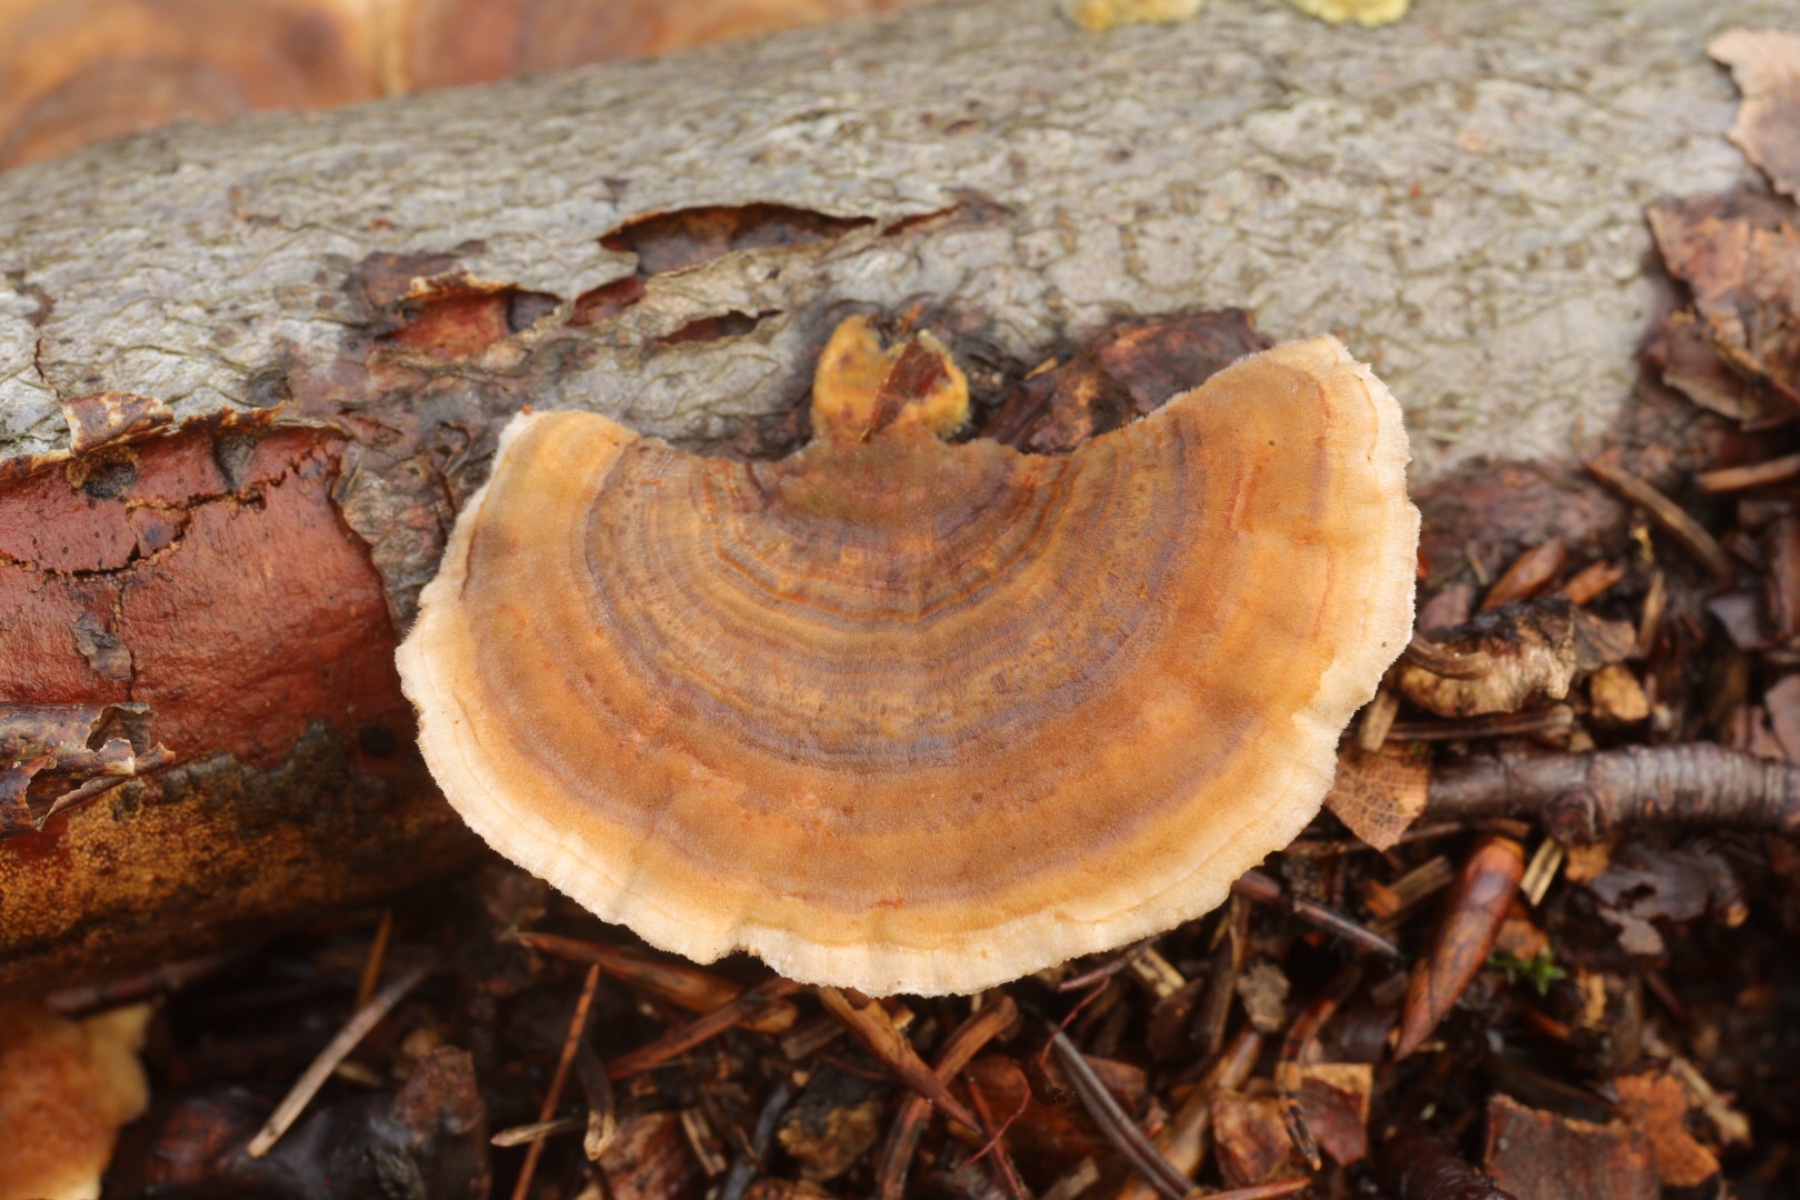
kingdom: Fungi
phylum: Basidiomycota
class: Agaricomycetes
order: Polyporales
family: Polyporaceae
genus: Trametes
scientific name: Trametes versicolor
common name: broget læderporesvamp
